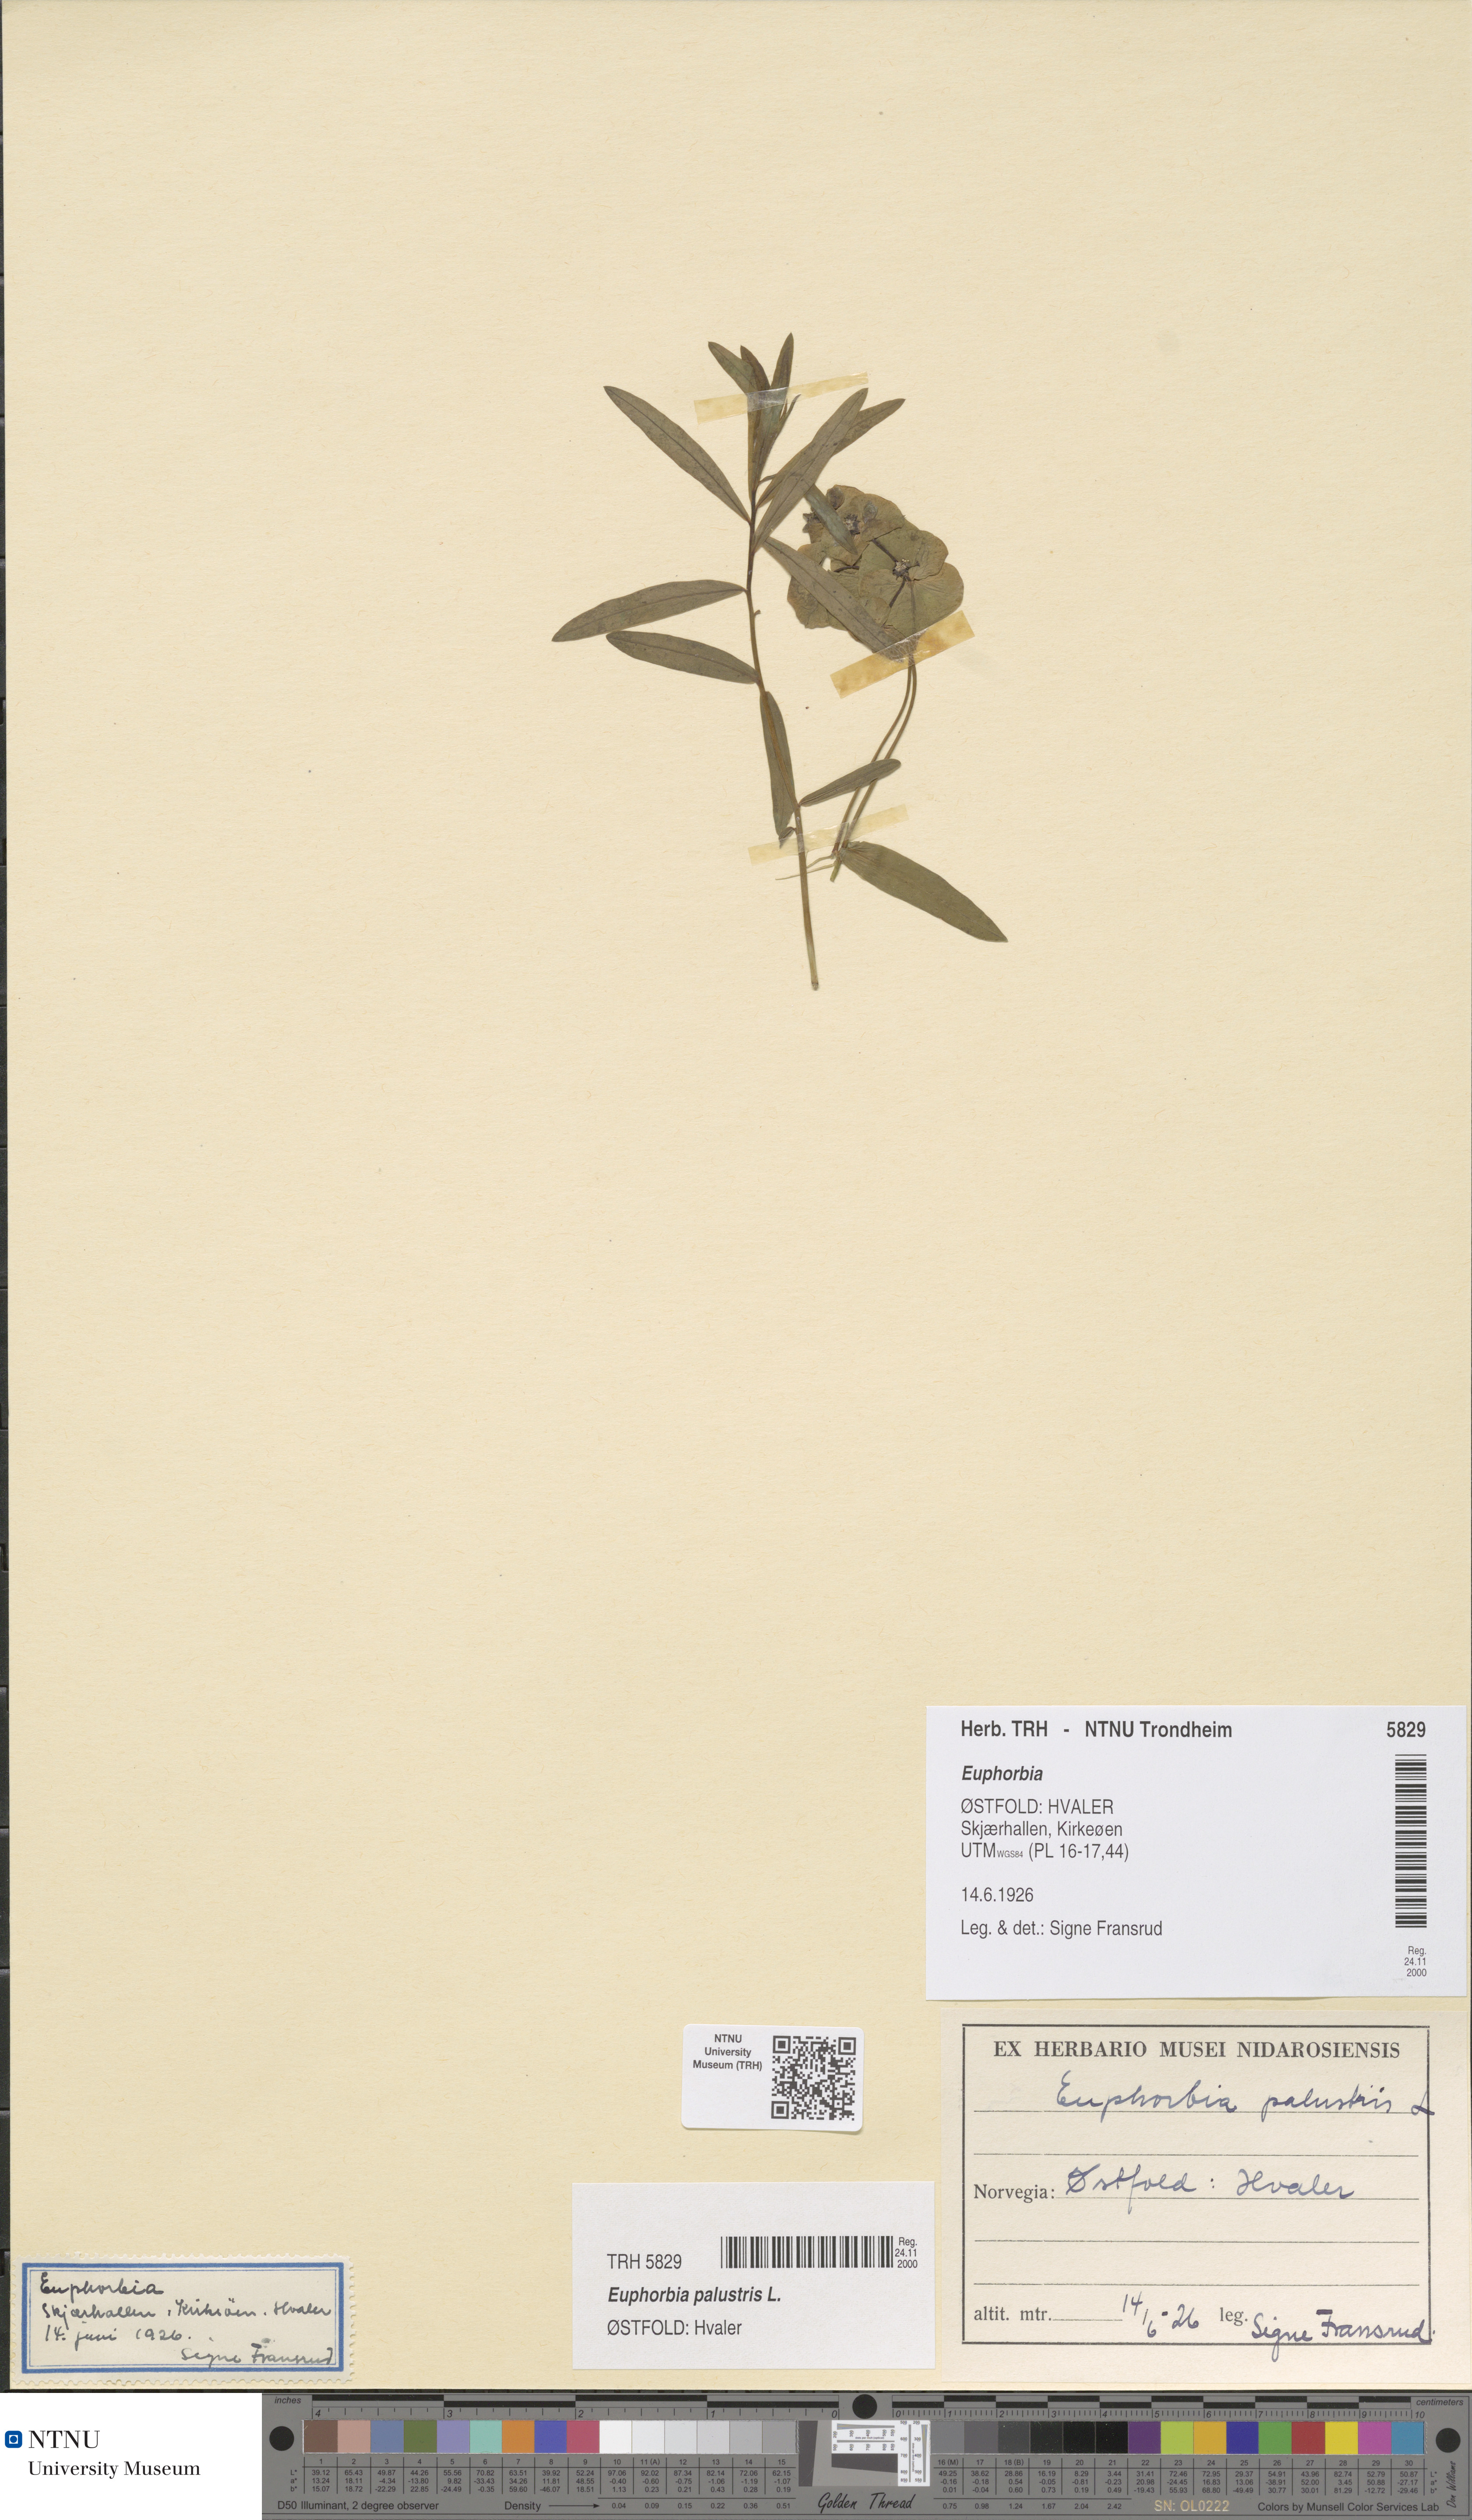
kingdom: Plantae
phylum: Tracheophyta
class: Magnoliopsida
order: Malpighiales
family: Euphorbiaceae
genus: Euphorbia
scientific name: Euphorbia palustris
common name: Marsh spurge
